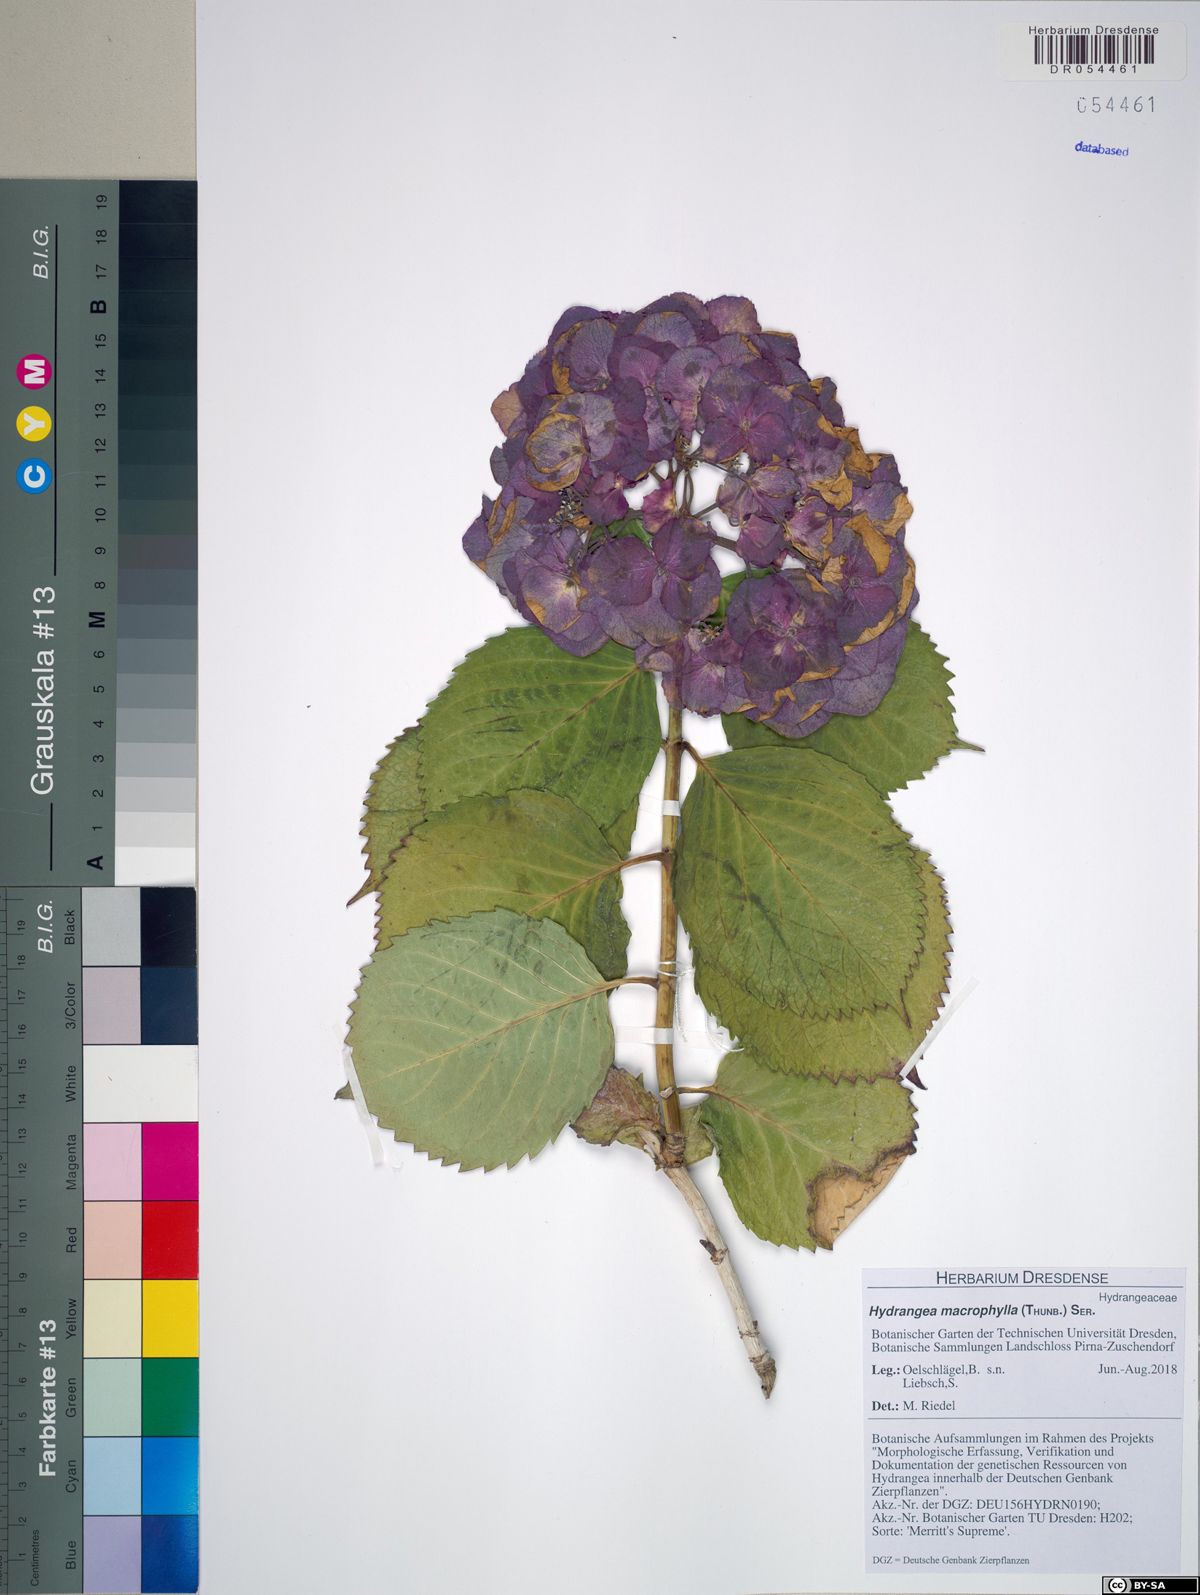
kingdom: Plantae
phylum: Tracheophyta
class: Magnoliopsida
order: Cornales
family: Hydrangeaceae
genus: Hydrangea
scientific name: Hydrangea macrophylla
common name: Hydrangea
